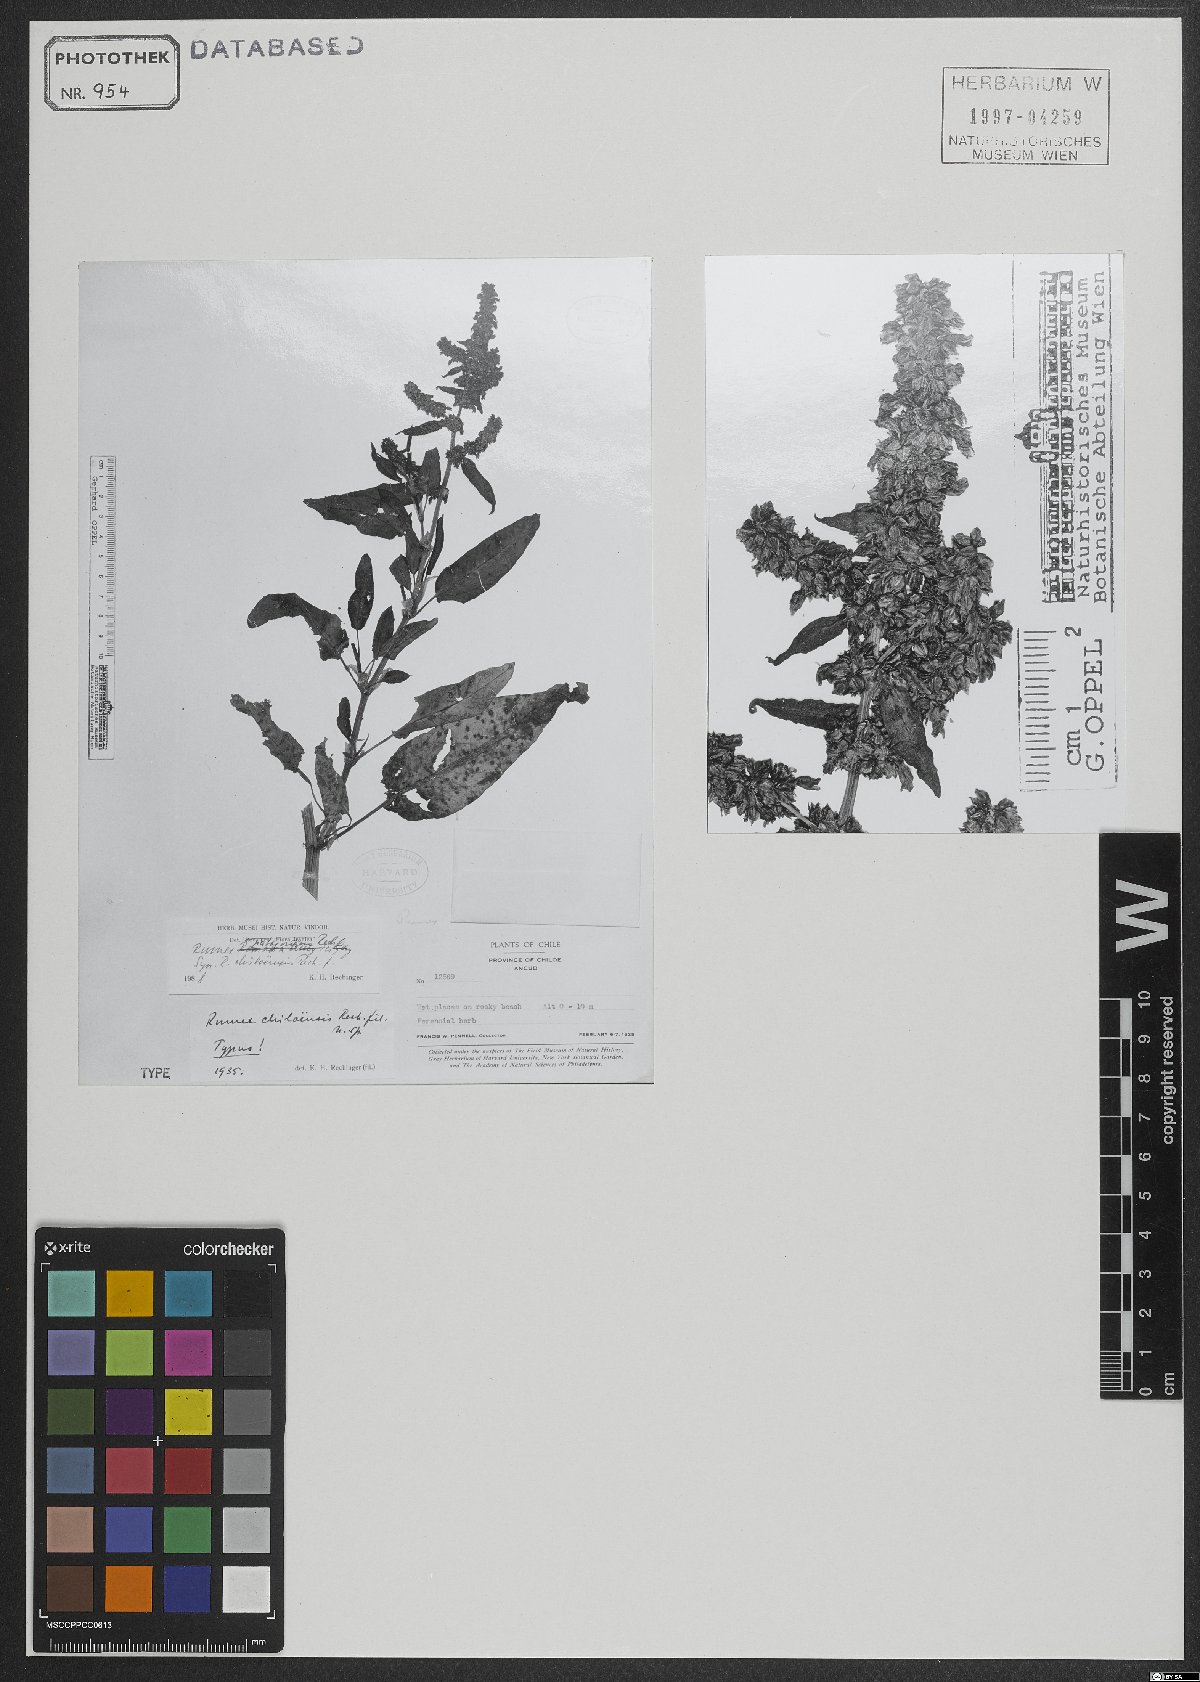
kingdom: Plantae
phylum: Tracheophyta
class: Magnoliopsida
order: Caryophyllales
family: Polygonaceae
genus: Rumex
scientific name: Rumex patagonicus
